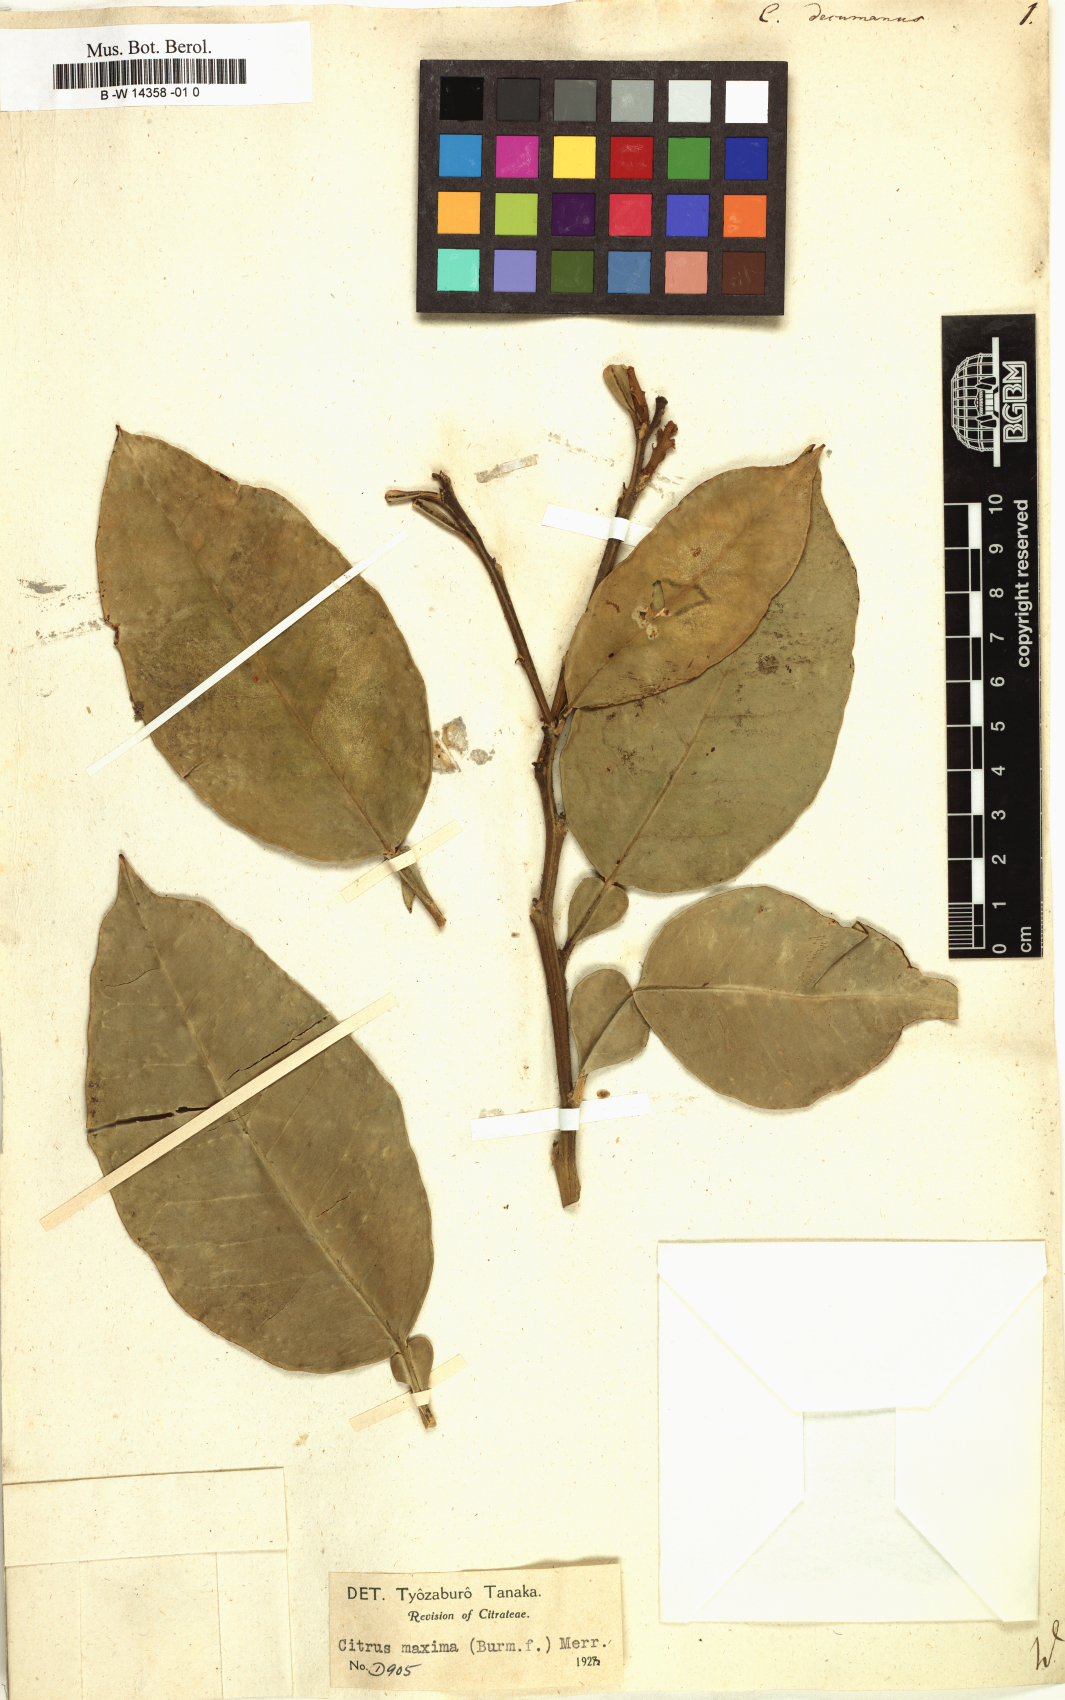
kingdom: Plantae
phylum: Tracheophyta
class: Magnoliopsida
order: Sapindales
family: Rutaceae
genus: Citrus
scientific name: Citrus maxima
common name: Pomelo
